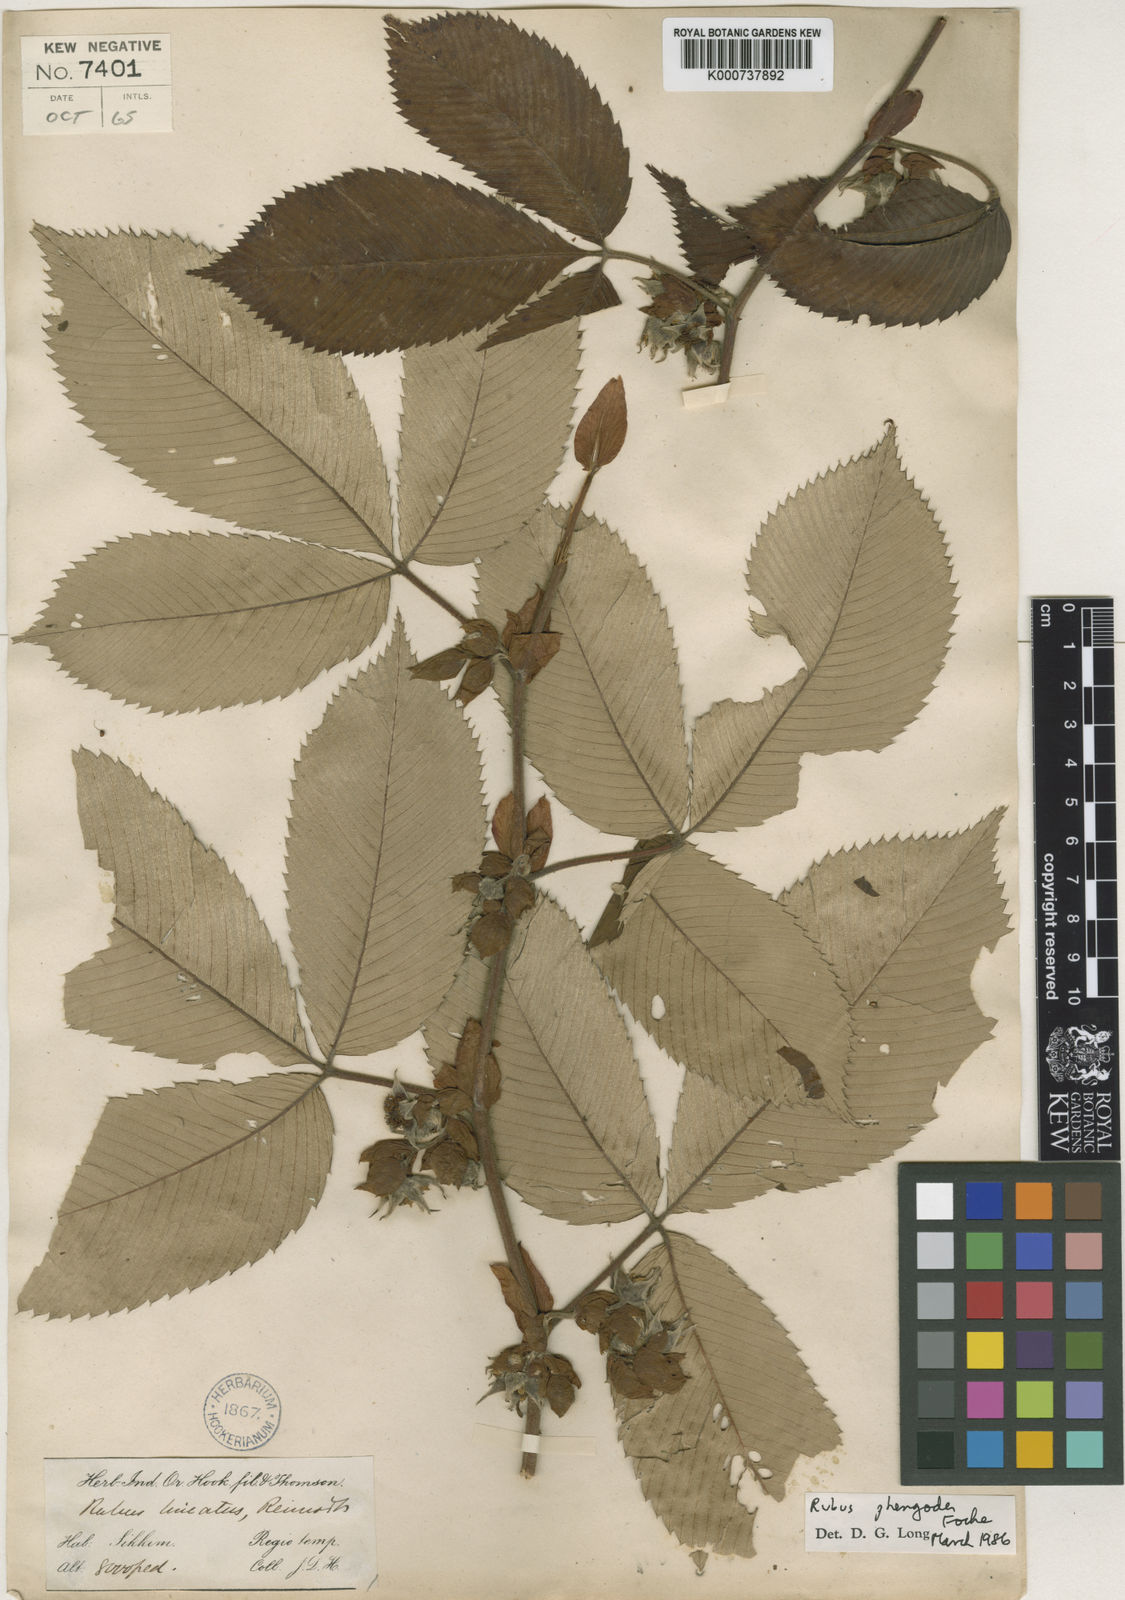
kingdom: Plantae
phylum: Tracheophyta
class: Magnoliopsida
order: Rosales
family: Rosaceae
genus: Rubus
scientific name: Rubus lineatus
